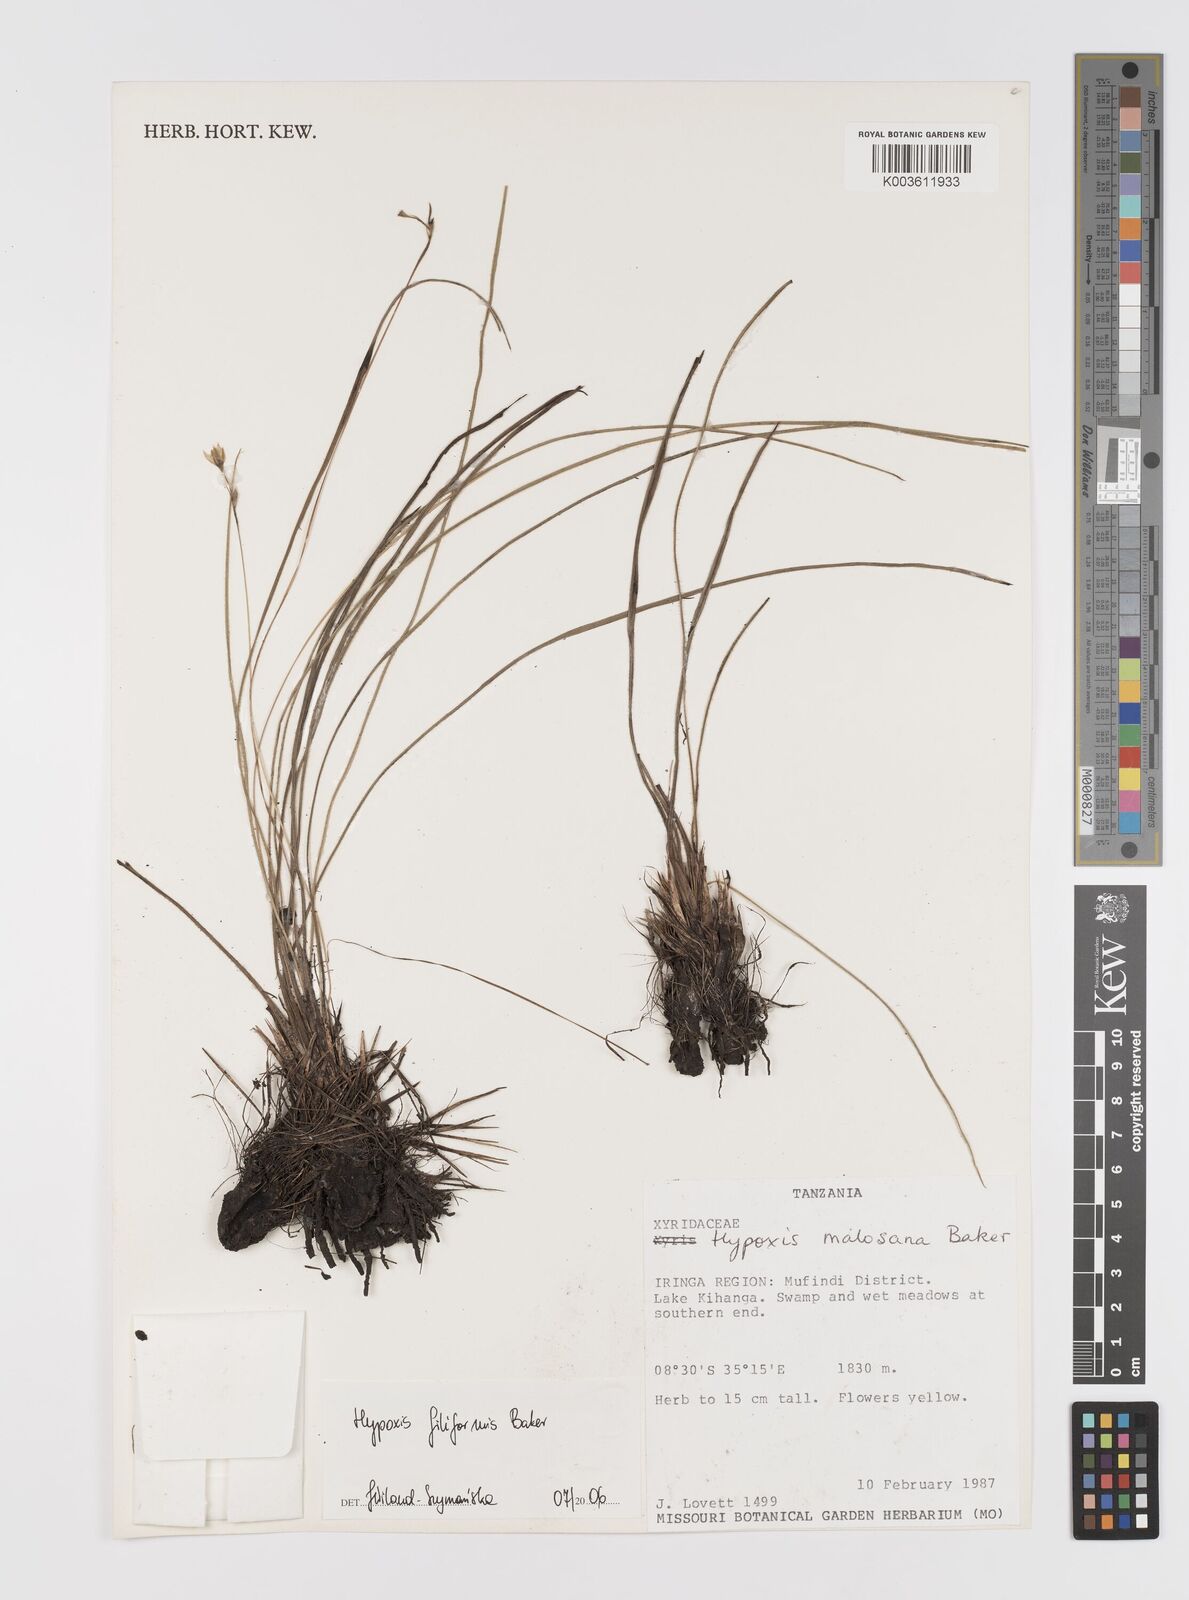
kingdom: Plantae
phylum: Tracheophyta
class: Liliopsida
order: Asparagales
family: Hypoxidaceae
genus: Hypoxis
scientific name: Hypoxis filiformis
